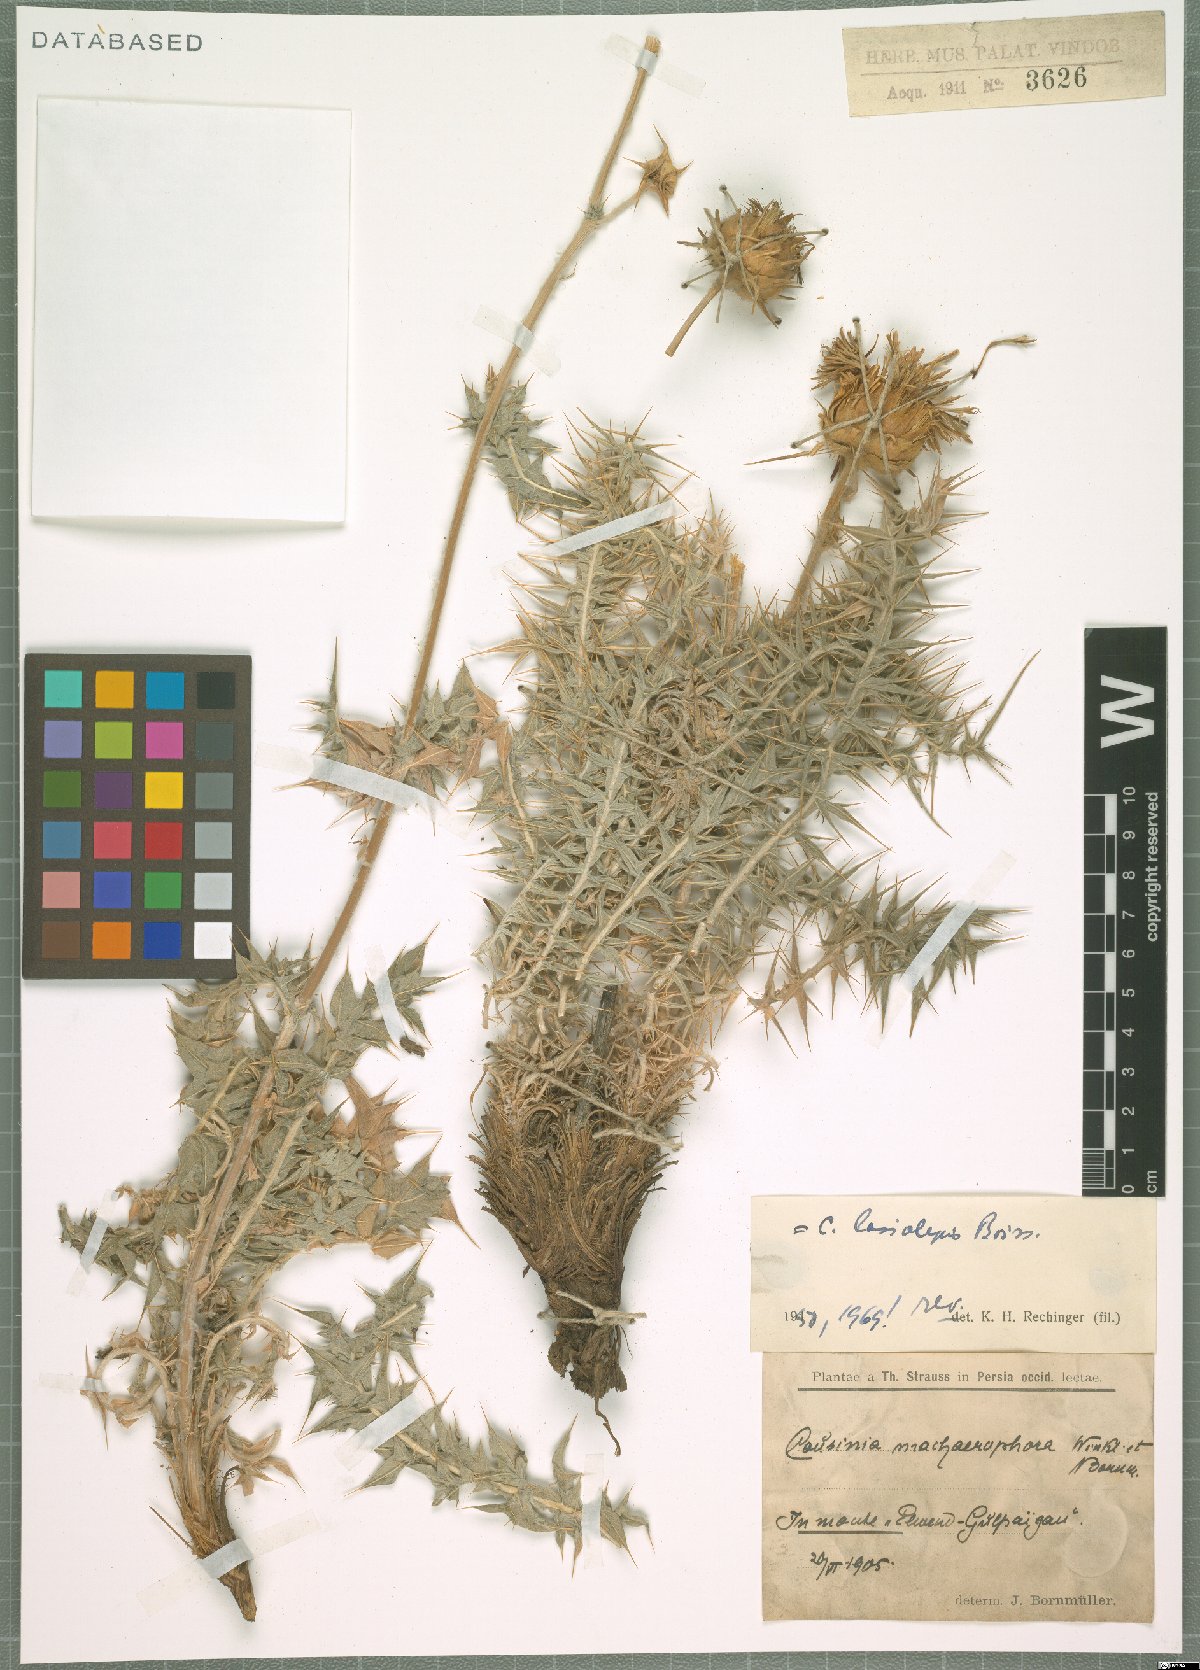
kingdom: Plantae
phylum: Tracheophyta
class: Magnoliopsida
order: Asterales
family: Asteraceae
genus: Cousinia
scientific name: Cousinia lasiolepis
